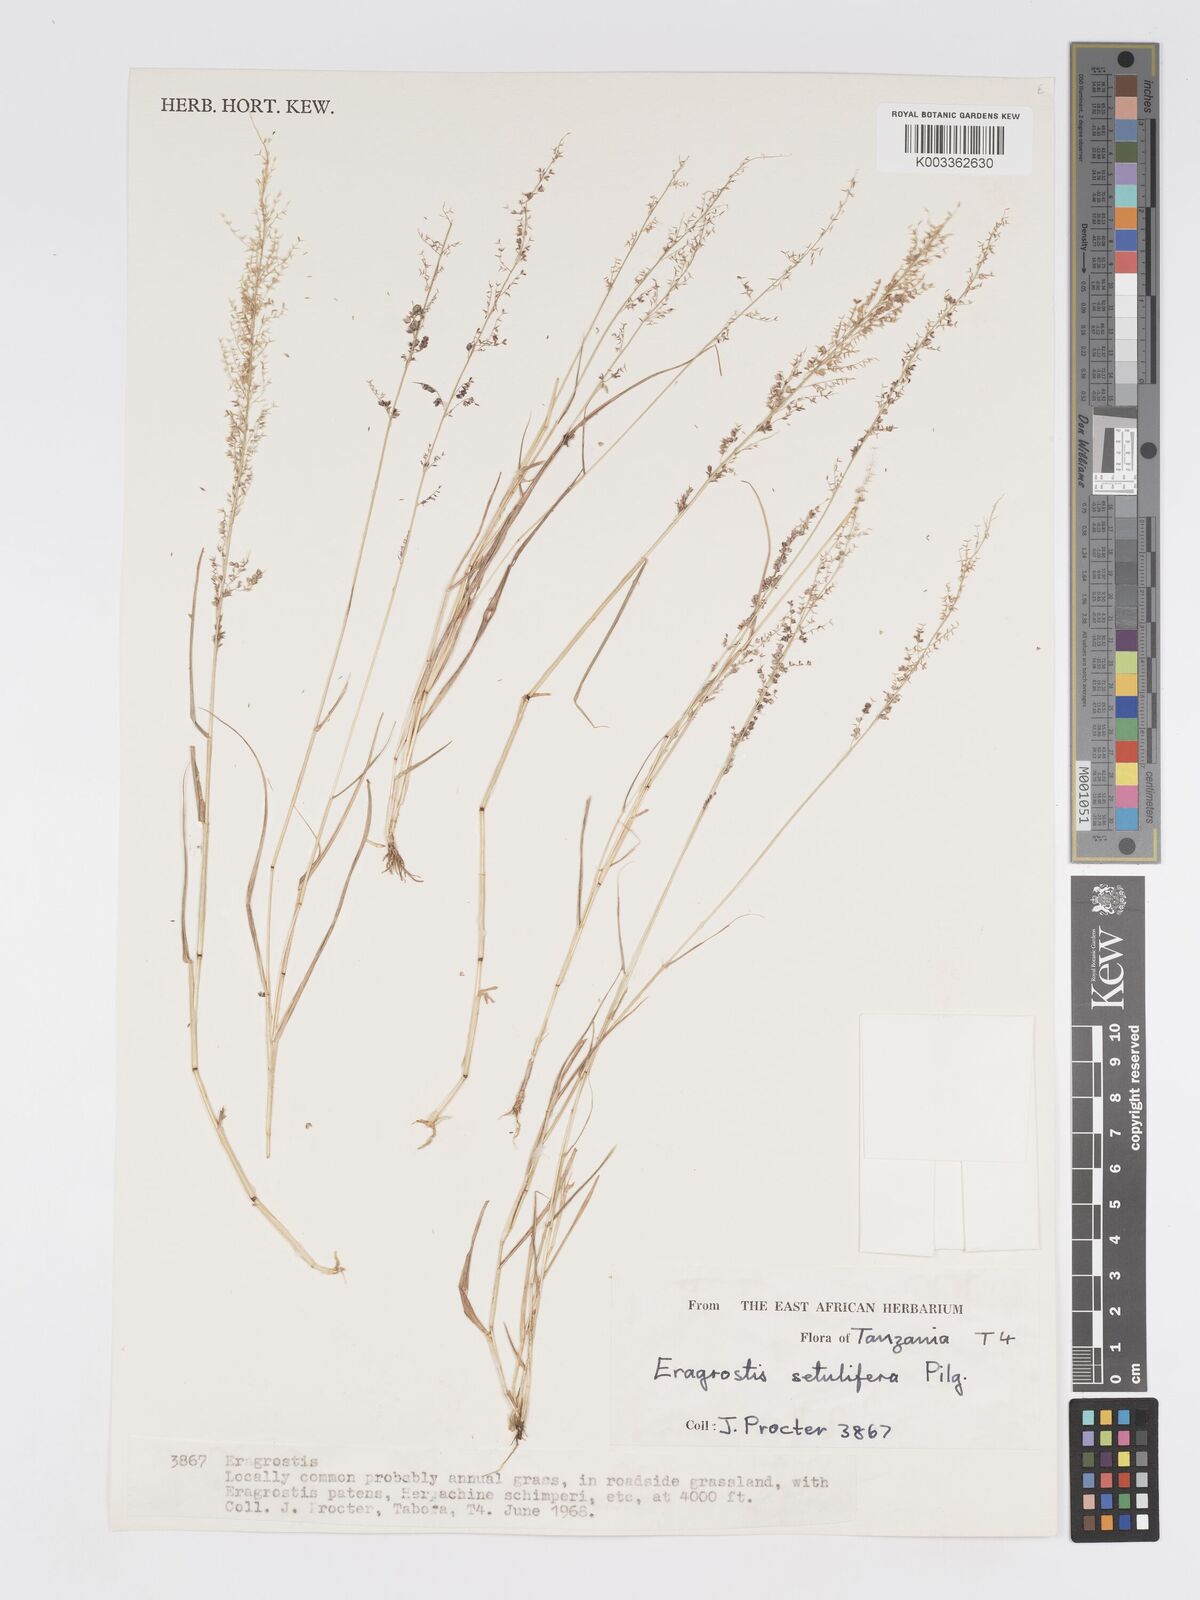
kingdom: Plantae
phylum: Tracheophyta
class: Liliopsida
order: Poales
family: Poaceae
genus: Eragrostis
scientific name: Eragrostis setulifera
